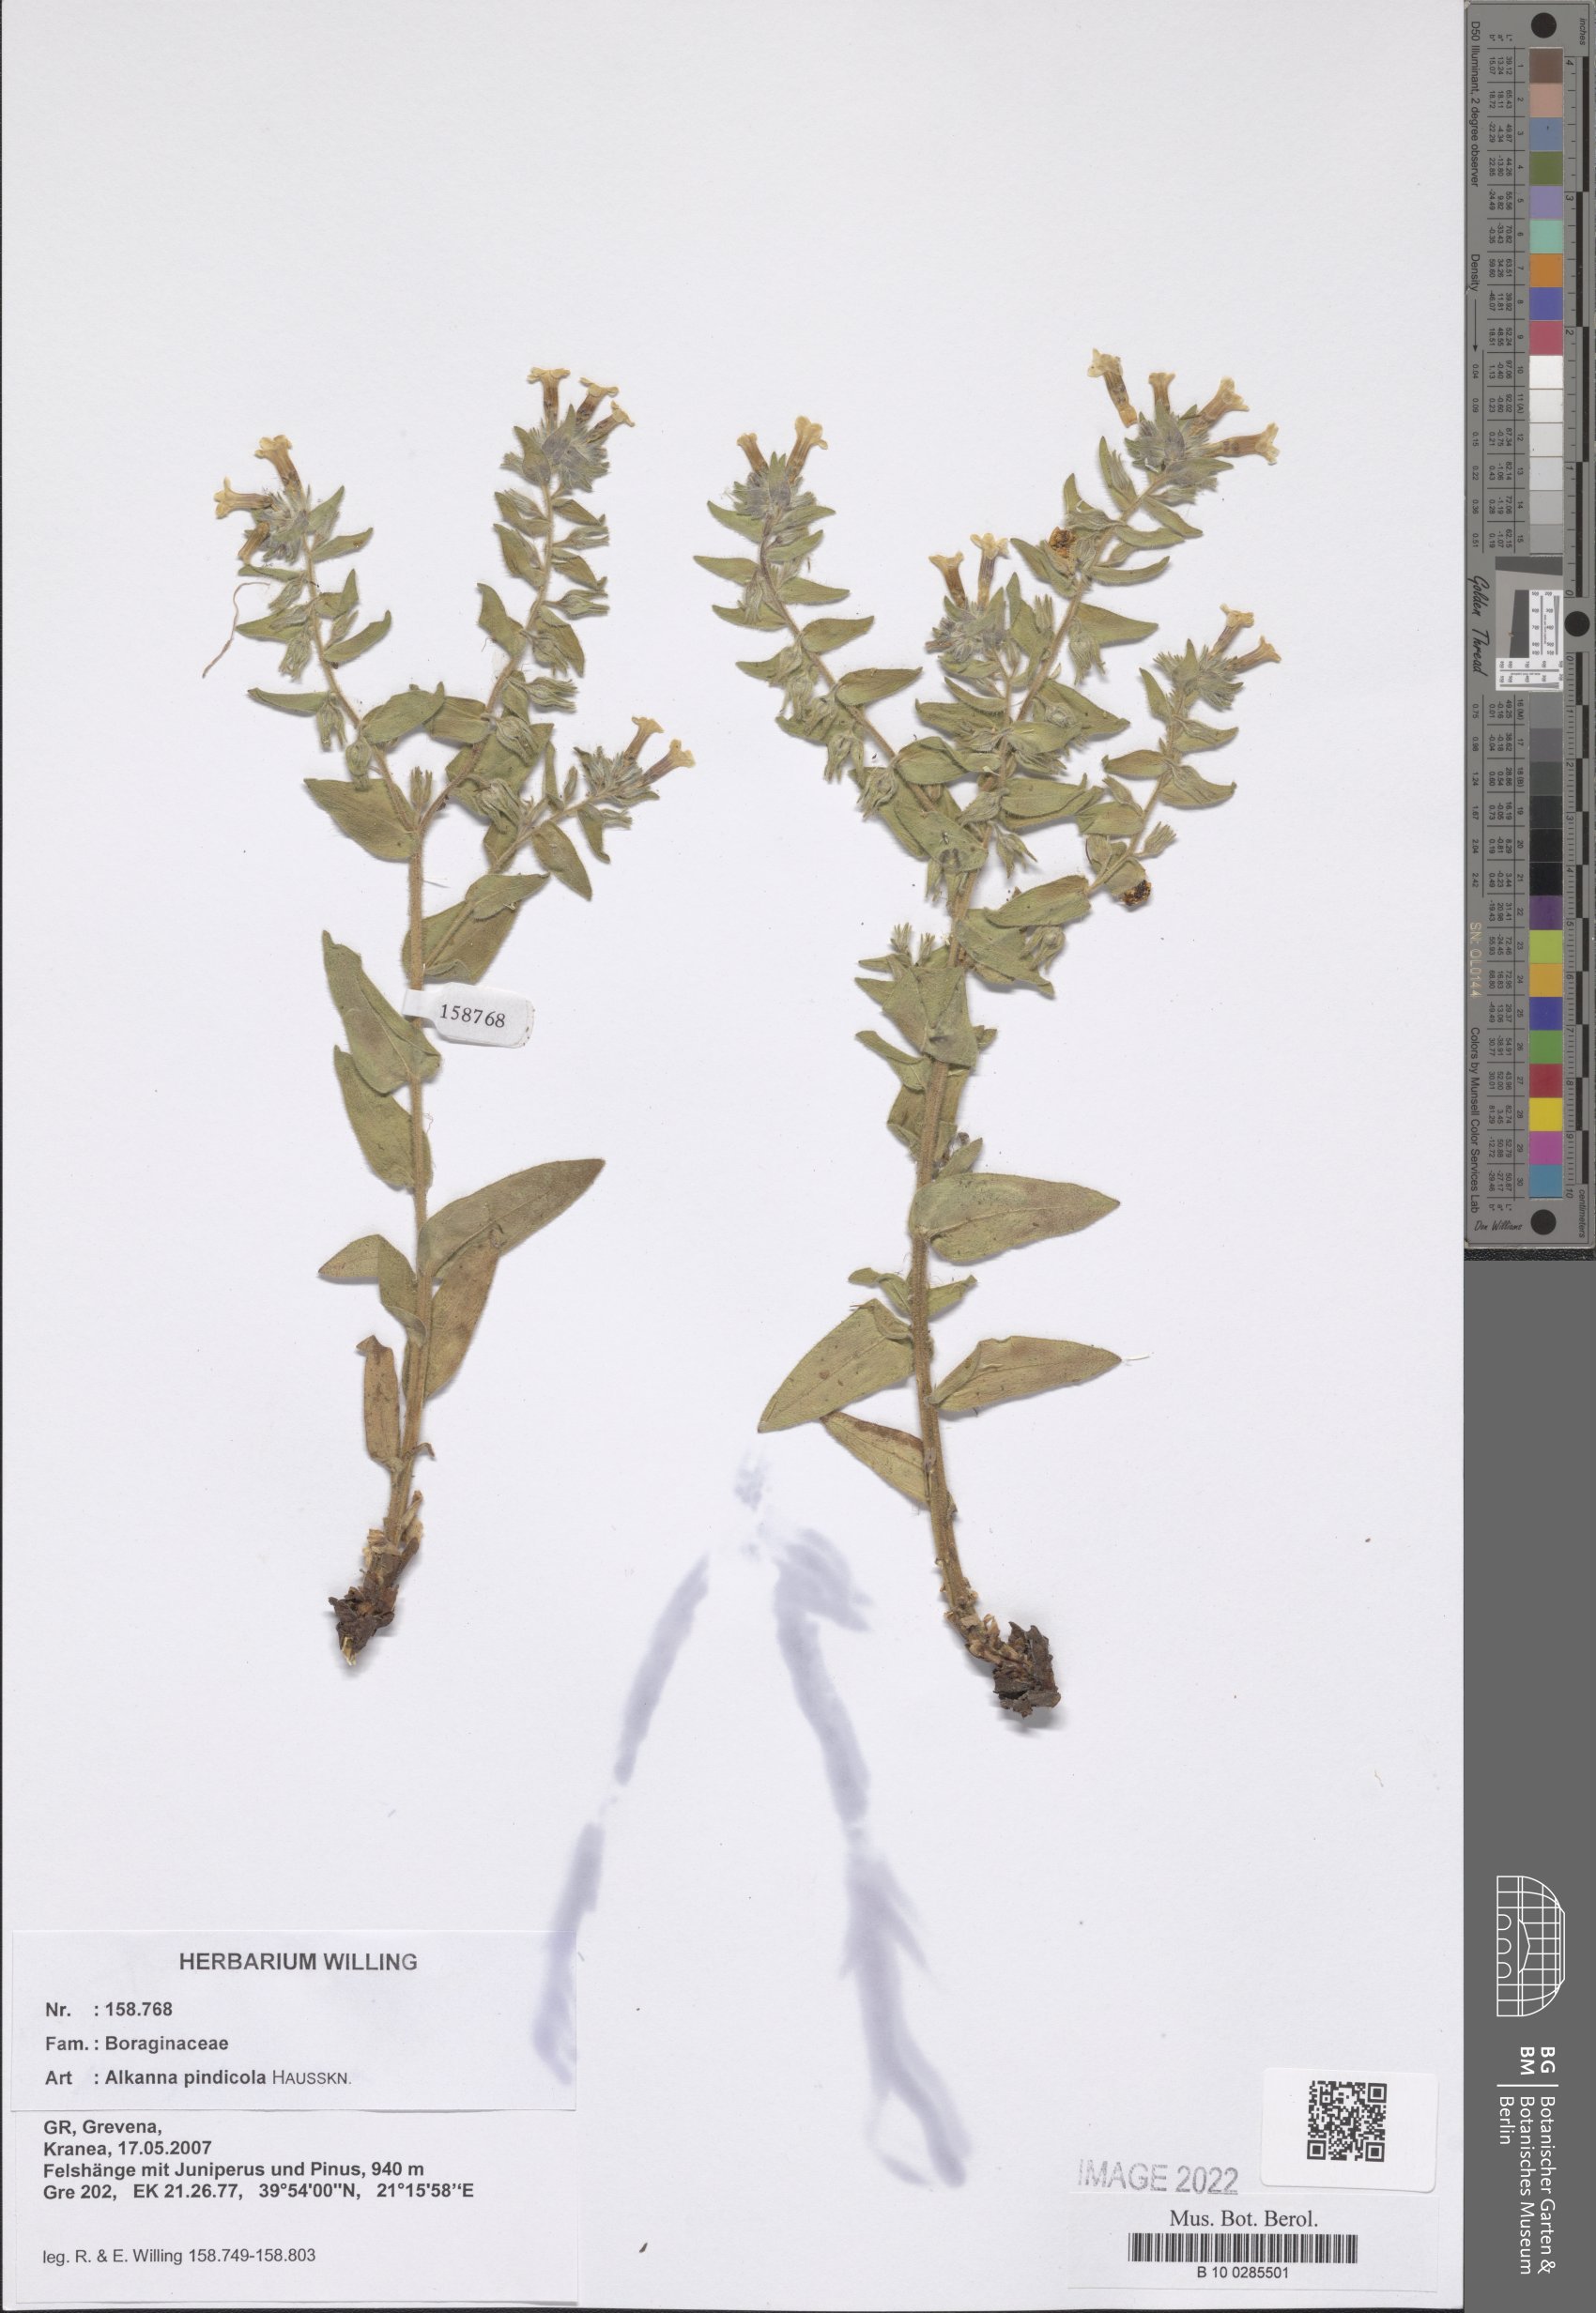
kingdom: Plantae
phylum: Tracheophyta
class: Magnoliopsida
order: Boraginales
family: Boraginaceae
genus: Alkanna
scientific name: Alkanna pindicola
